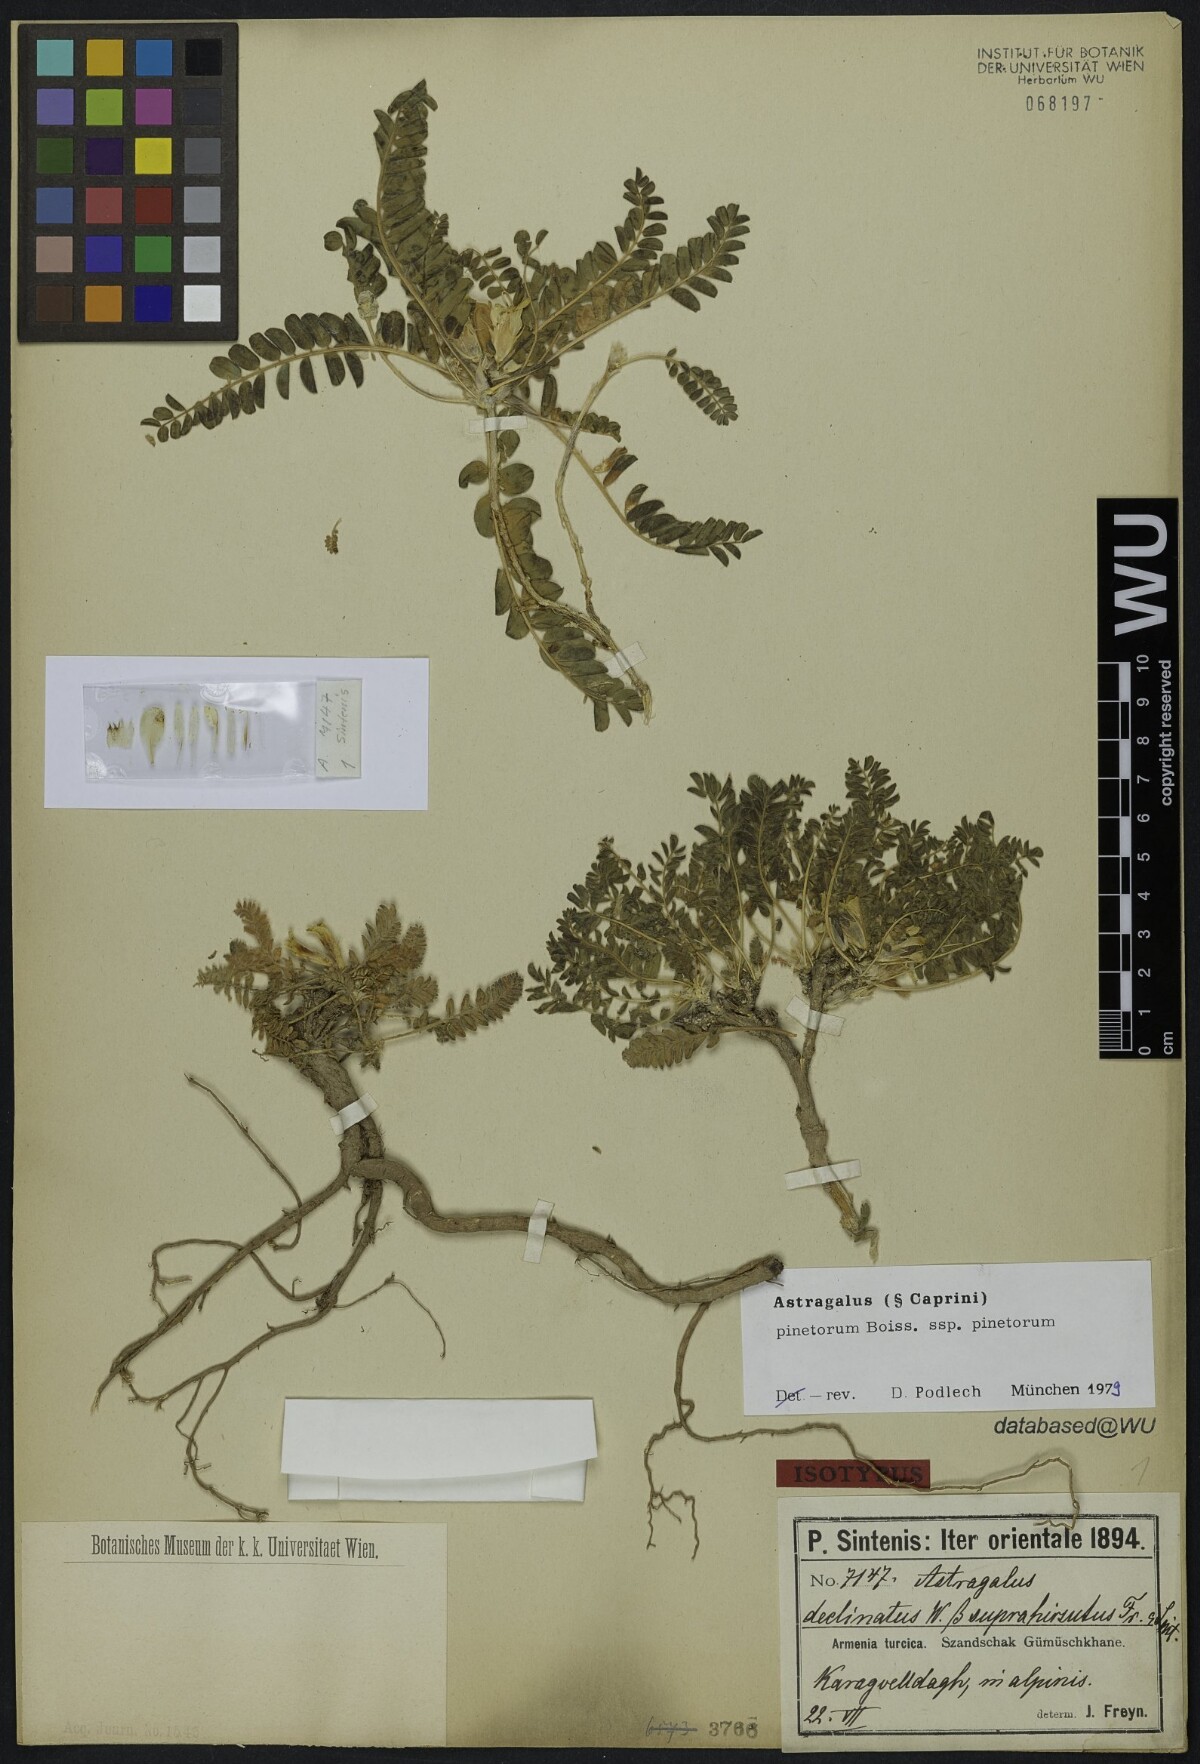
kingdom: Plantae
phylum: Tracheophyta
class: Magnoliopsida
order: Fabales
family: Fabaceae
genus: Astragalus
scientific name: Astragalus pinetorum
